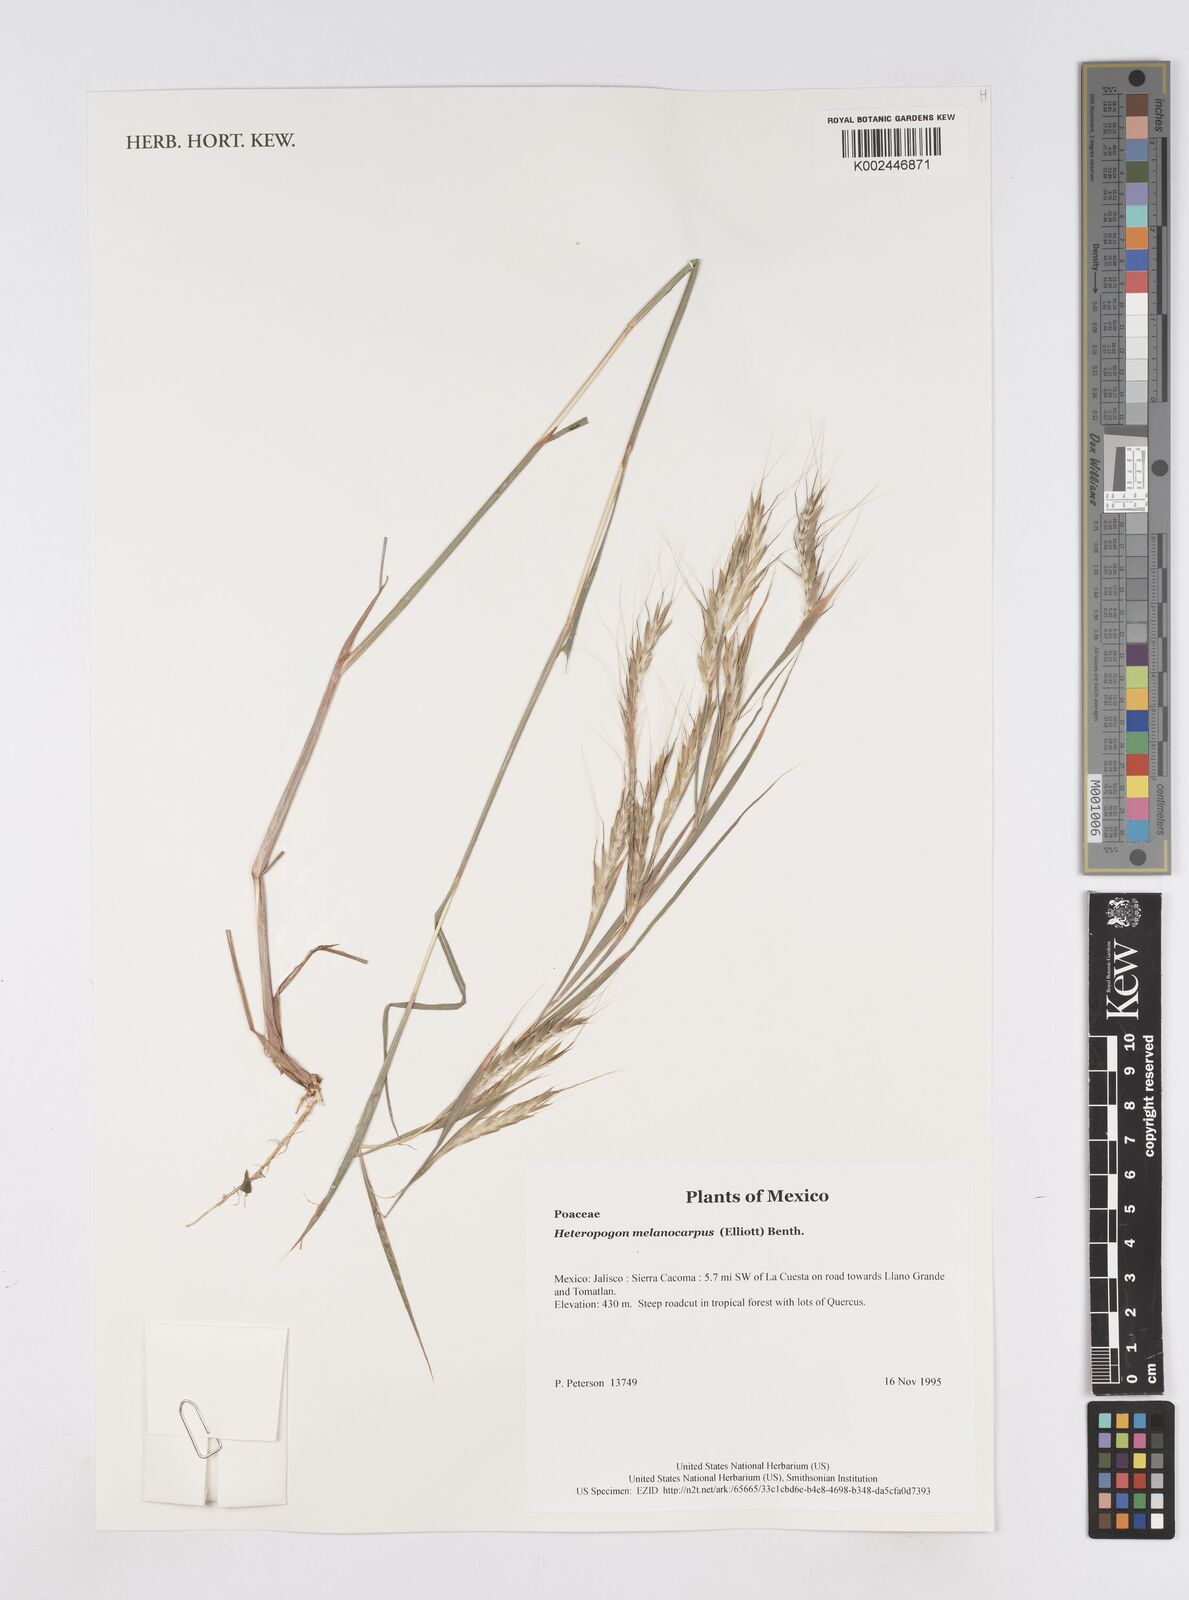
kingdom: Plantae
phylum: Tracheophyta
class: Liliopsida
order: Poales
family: Poaceae
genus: Heteropogon
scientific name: Heteropogon melanocarpus
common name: Sweet tanglehead
